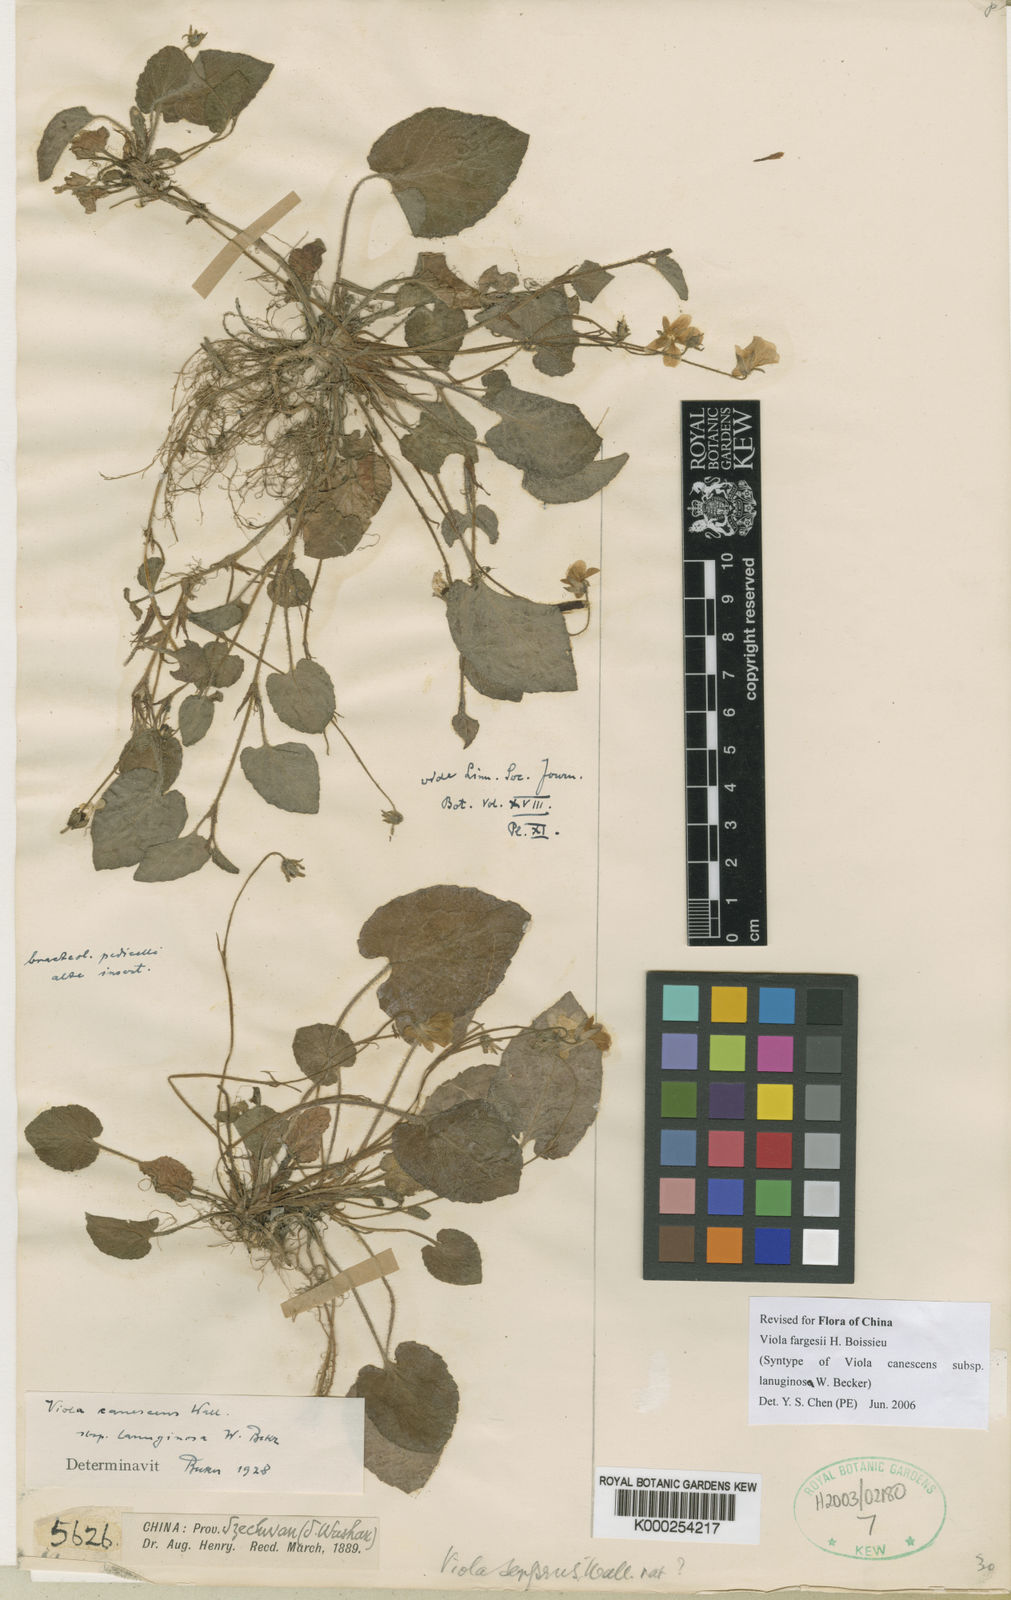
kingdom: Plantae
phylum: Tracheophyta
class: Magnoliopsida
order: Malpighiales
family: Violaceae
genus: Viola
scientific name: Viola canescens
